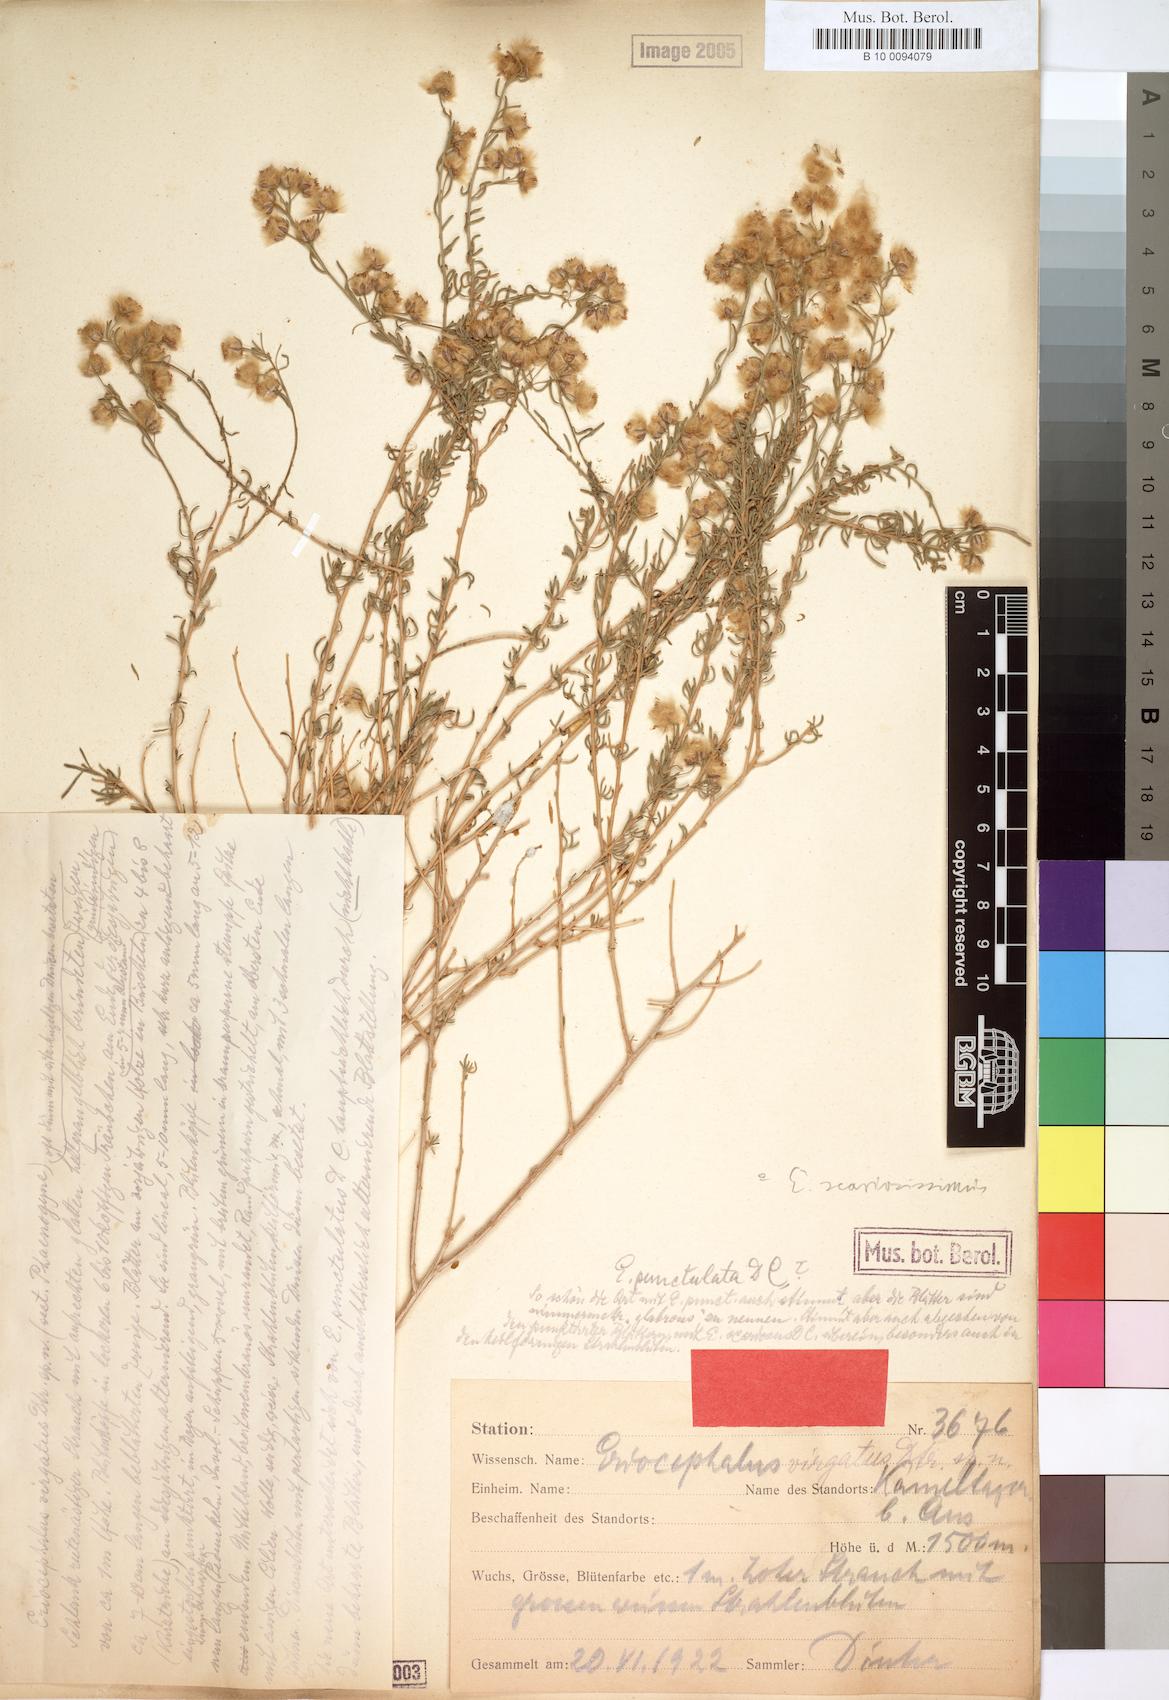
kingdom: Plantae
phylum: Tracheophyta
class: Magnoliopsida
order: Asterales
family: Asteraceae
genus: Eriocephalus
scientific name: Eriocephalus scariosus
